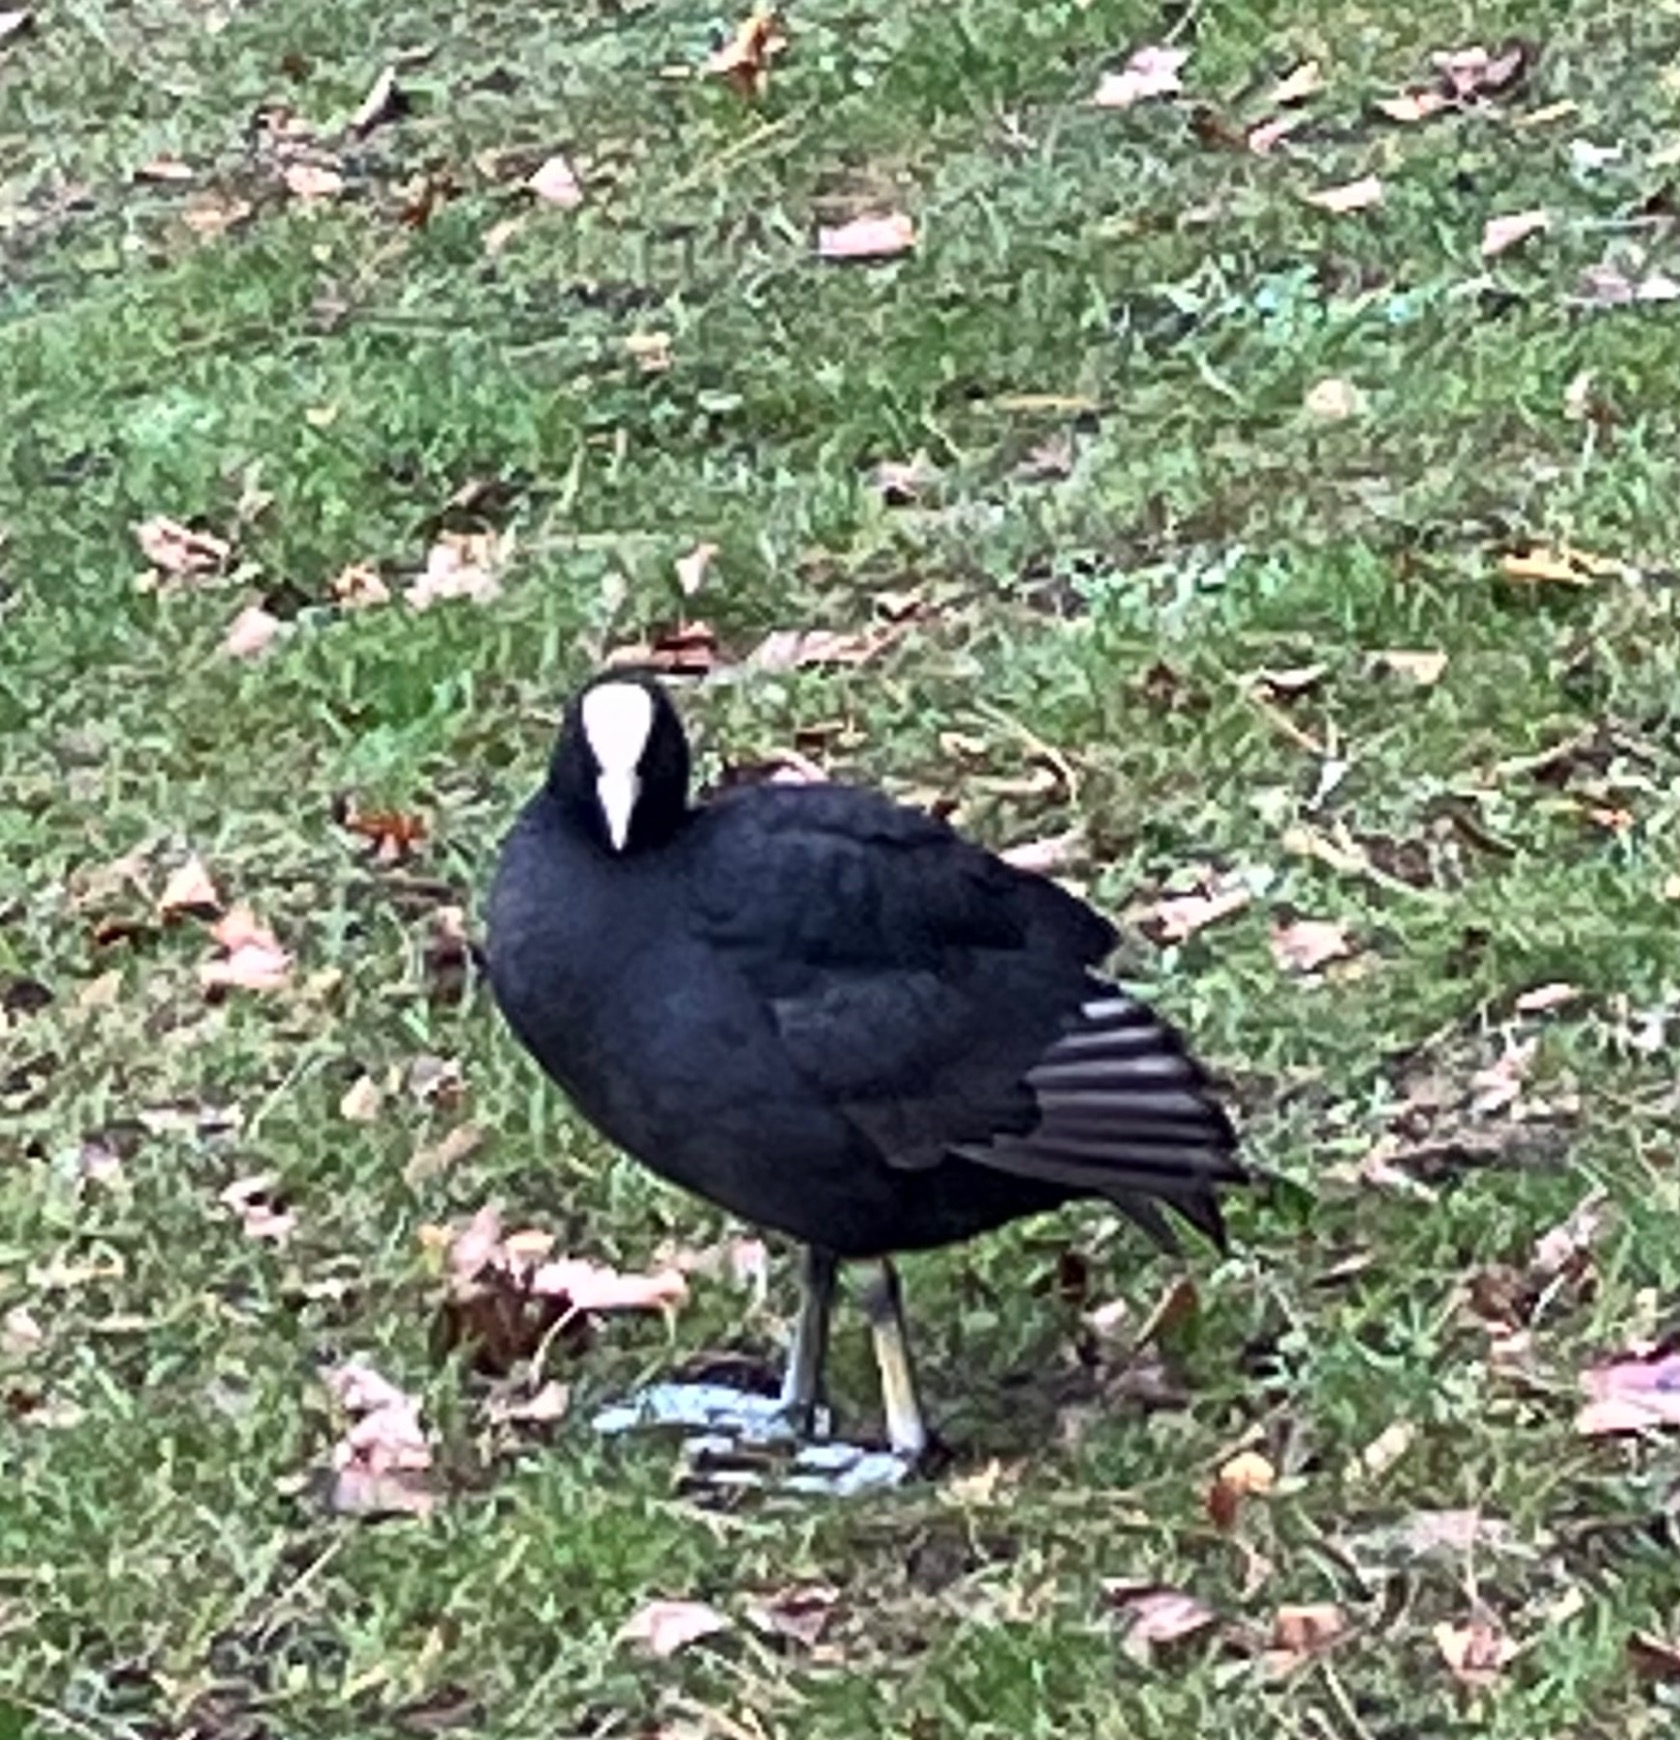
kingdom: Animalia
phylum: Chordata
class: Aves
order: Gruiformes
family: Rallidae
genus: Fulica
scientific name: Fulica atra
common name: Blishøne
